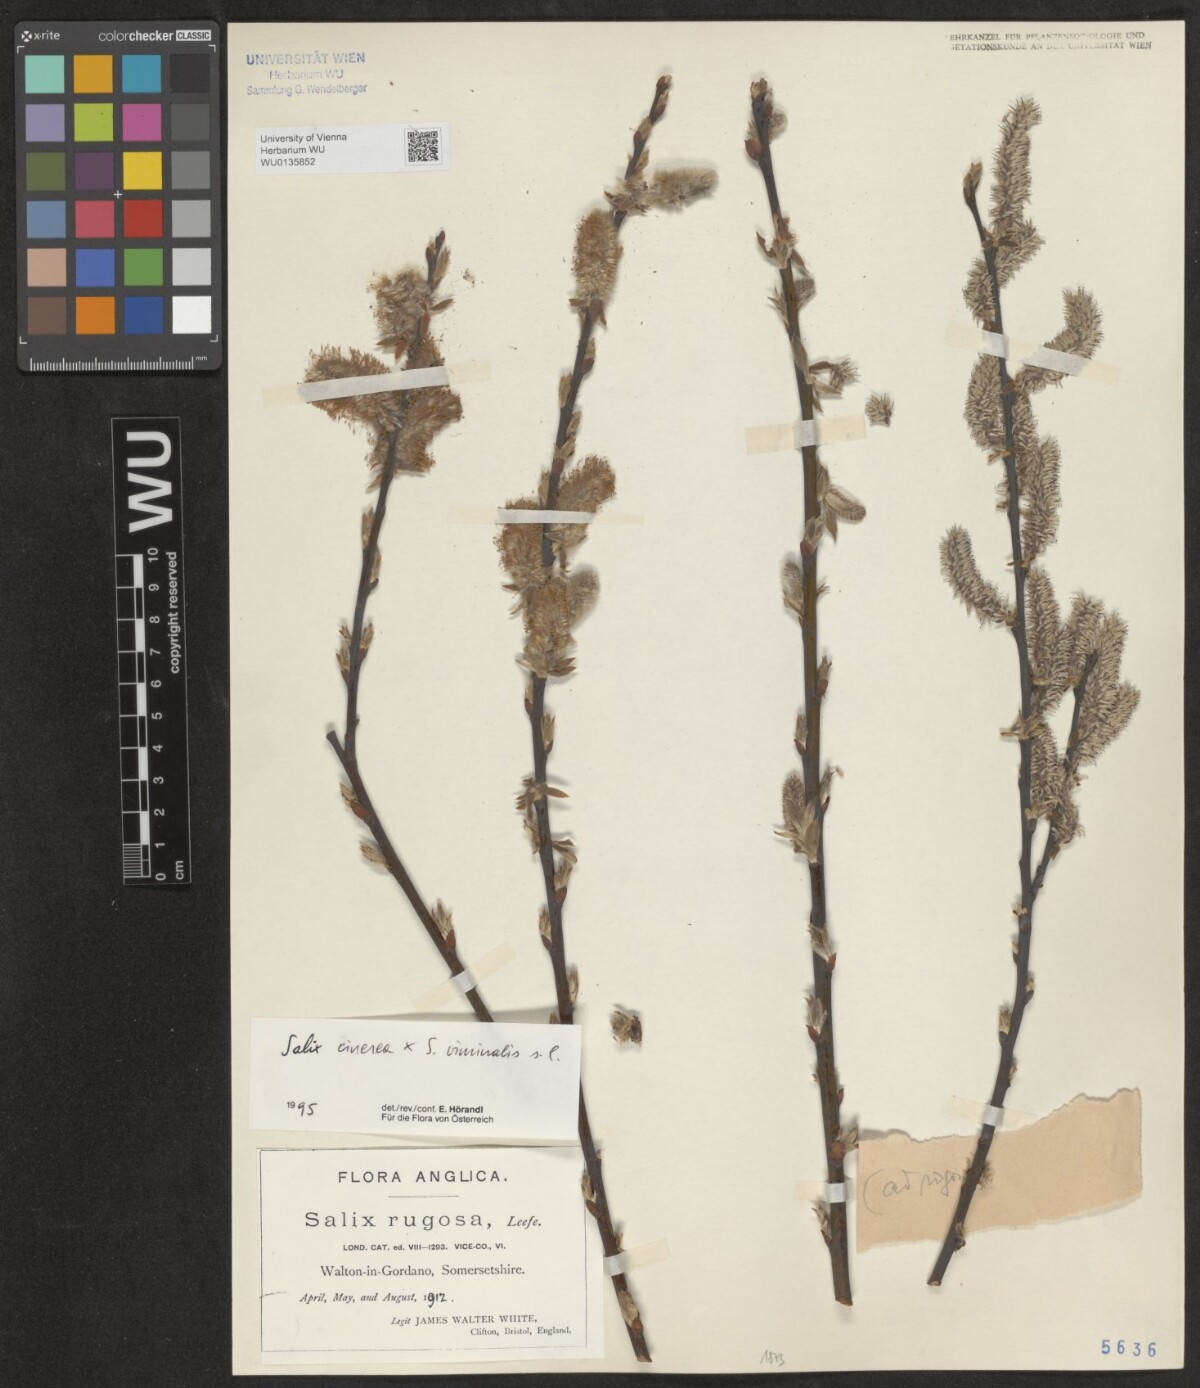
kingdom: Plantae
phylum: Tracheophyta
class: Magnoliopsida
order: Malpighiales
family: Salicaceae
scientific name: Salicaceae
